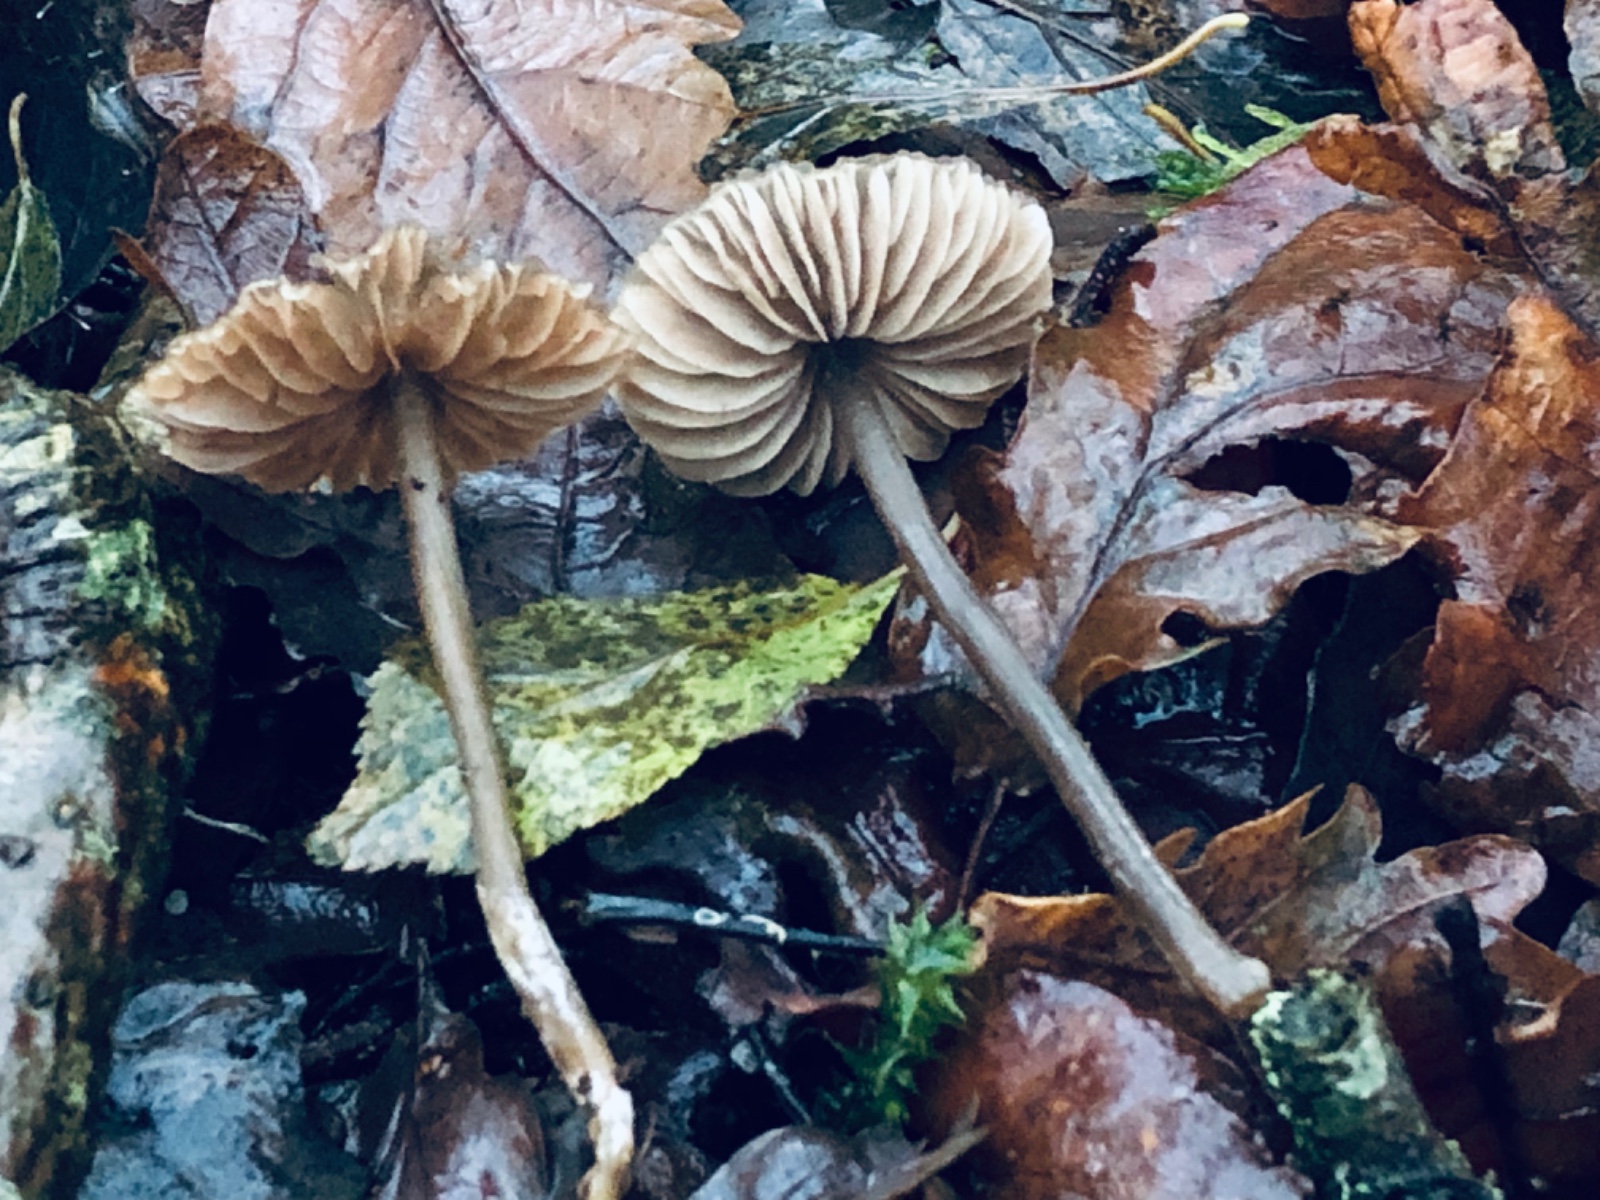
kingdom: Fungi
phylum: Basidiomycota
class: Agaricomycetes
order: Agaricales
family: Entolomataceae
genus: Entoloma
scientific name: Entoloma
